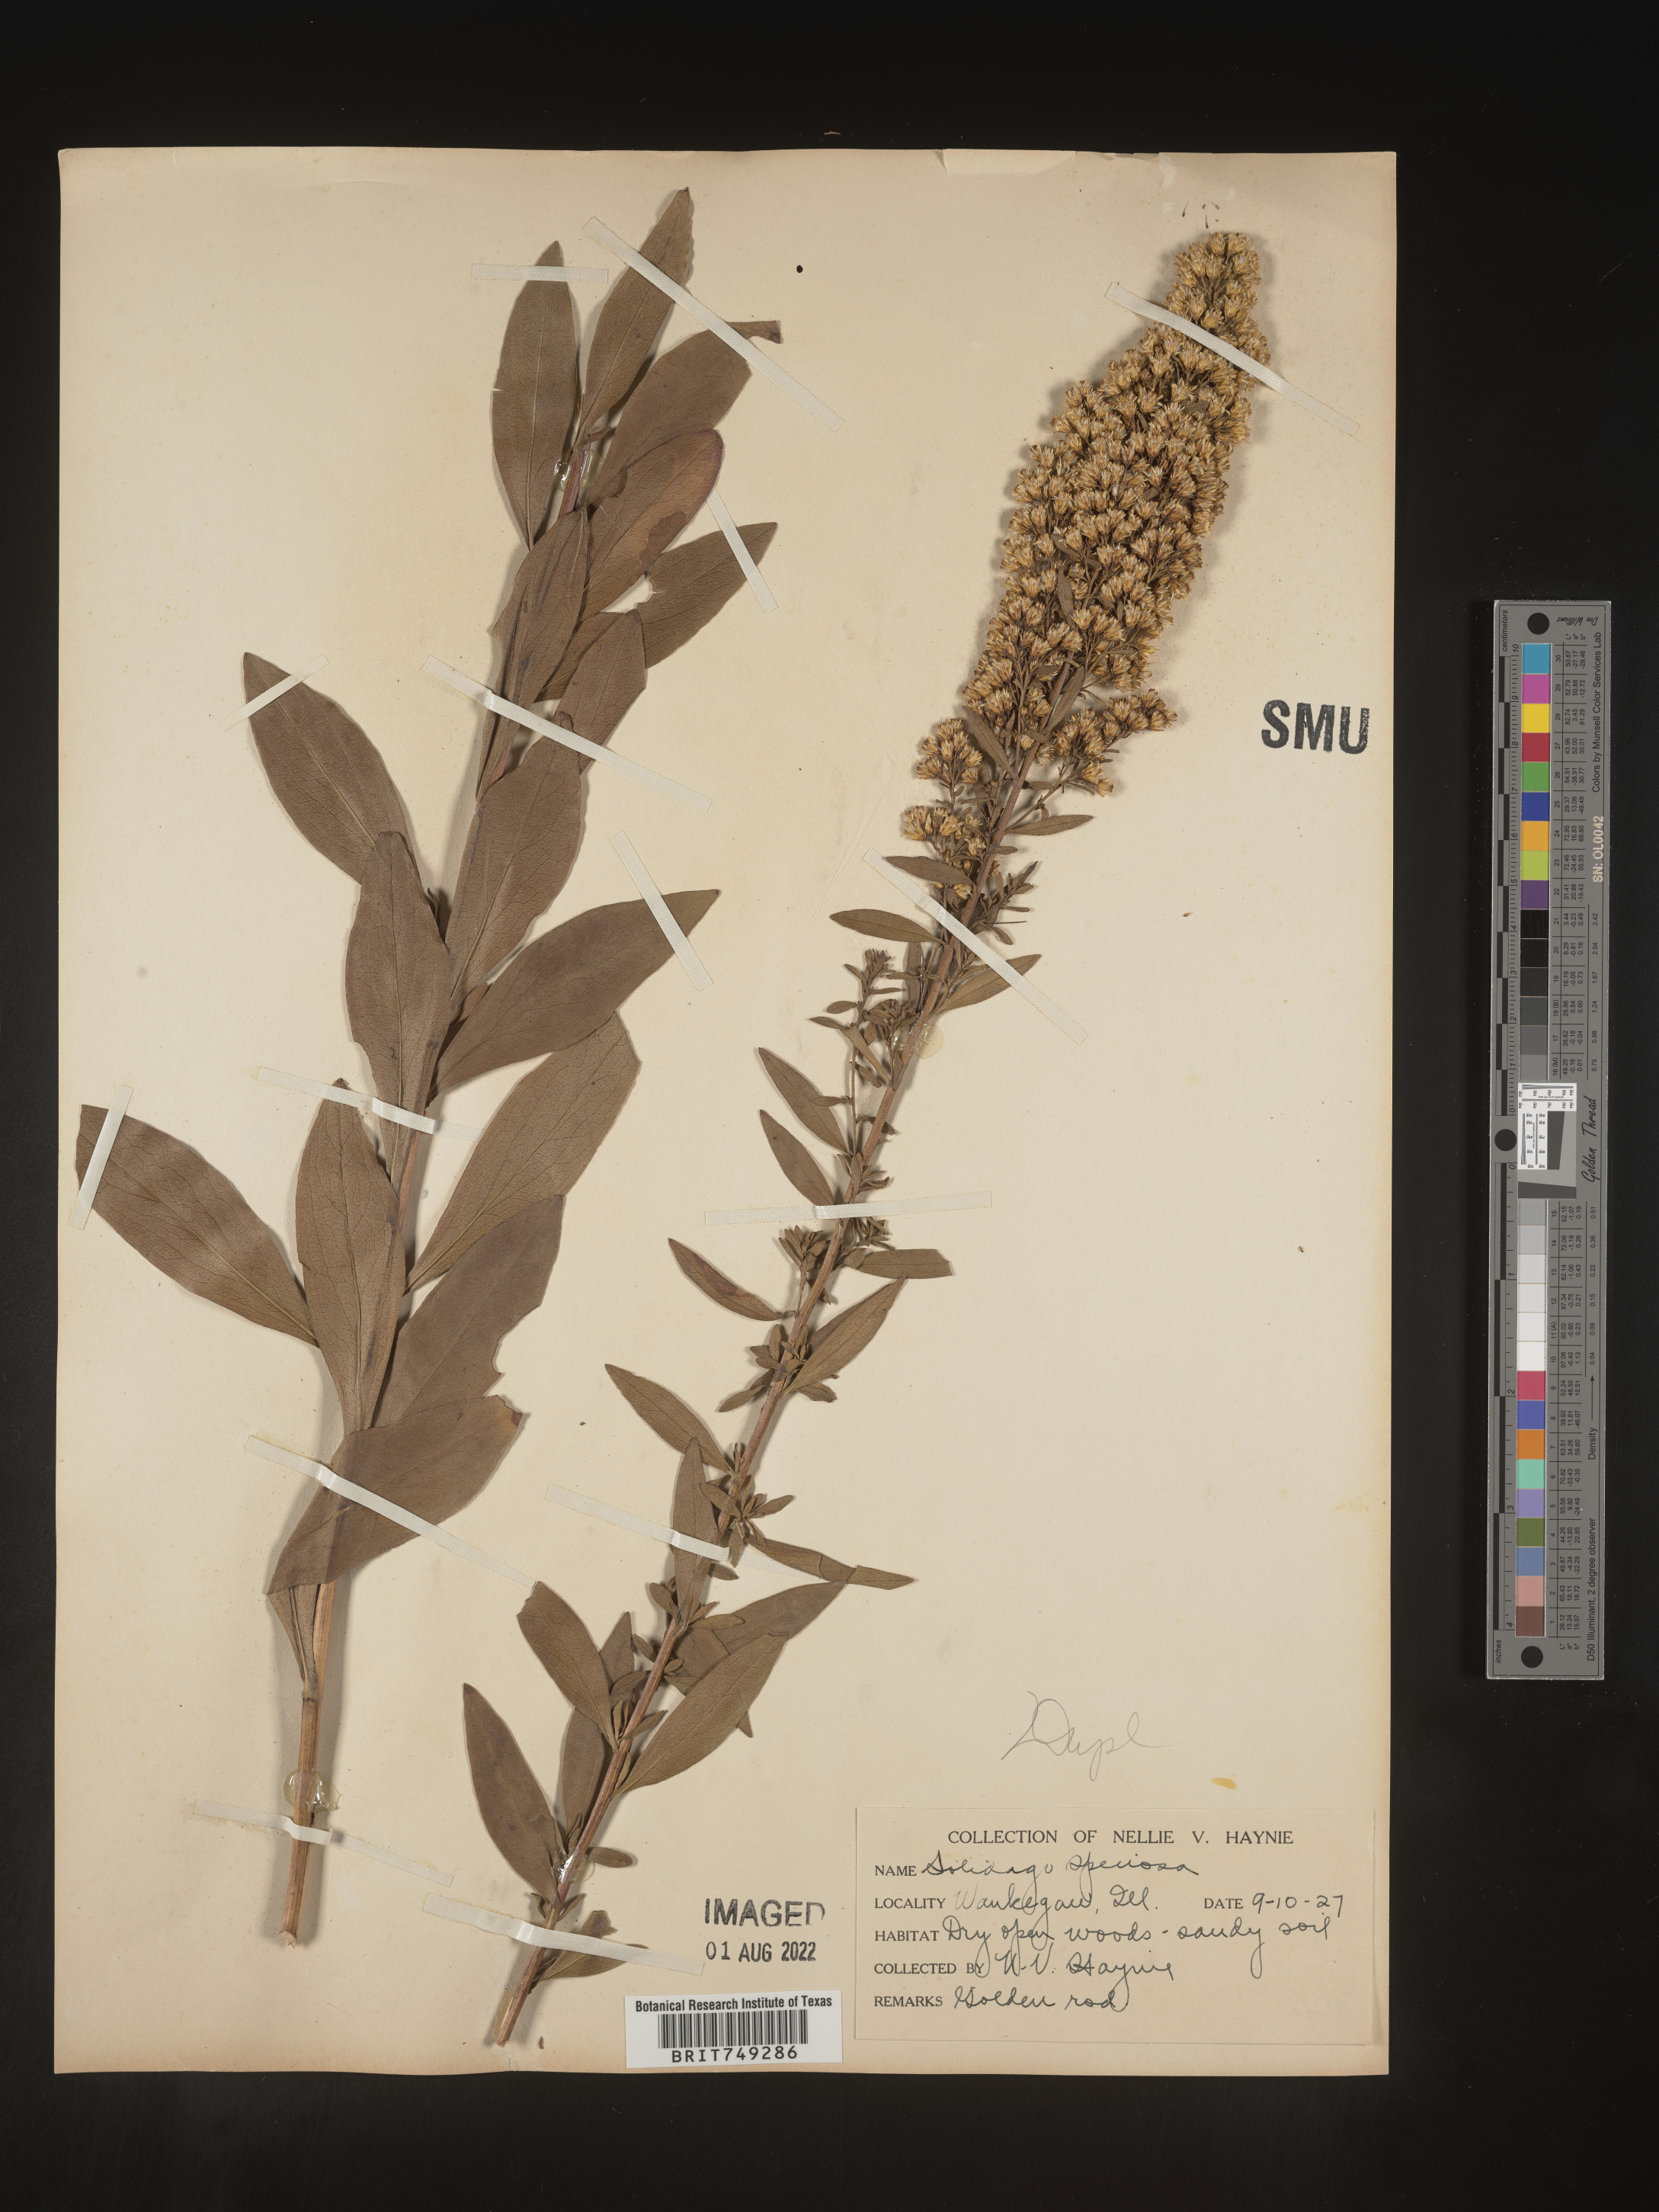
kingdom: Plantae
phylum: Tracheophyta
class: Magnoliopsida
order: Asterales
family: Asteraceae
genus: Solidago
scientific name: Solidago speciosa
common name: Showy goldenrod
